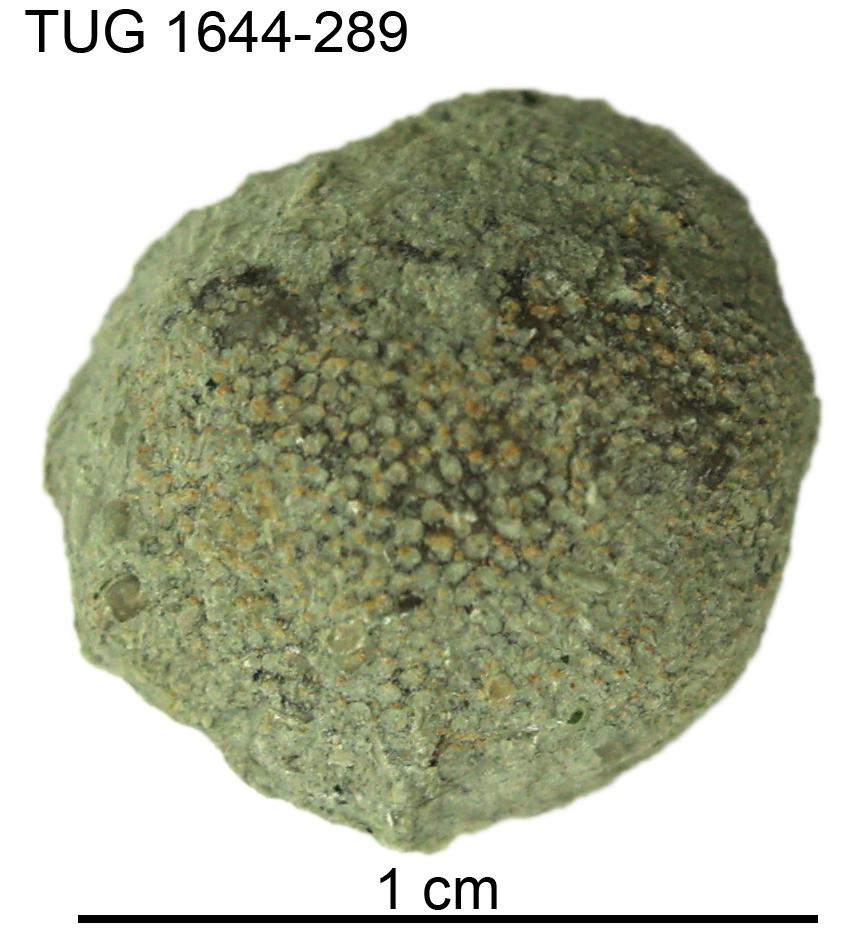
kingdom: Animalia
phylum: Bryozoa
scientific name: Bryozoa
